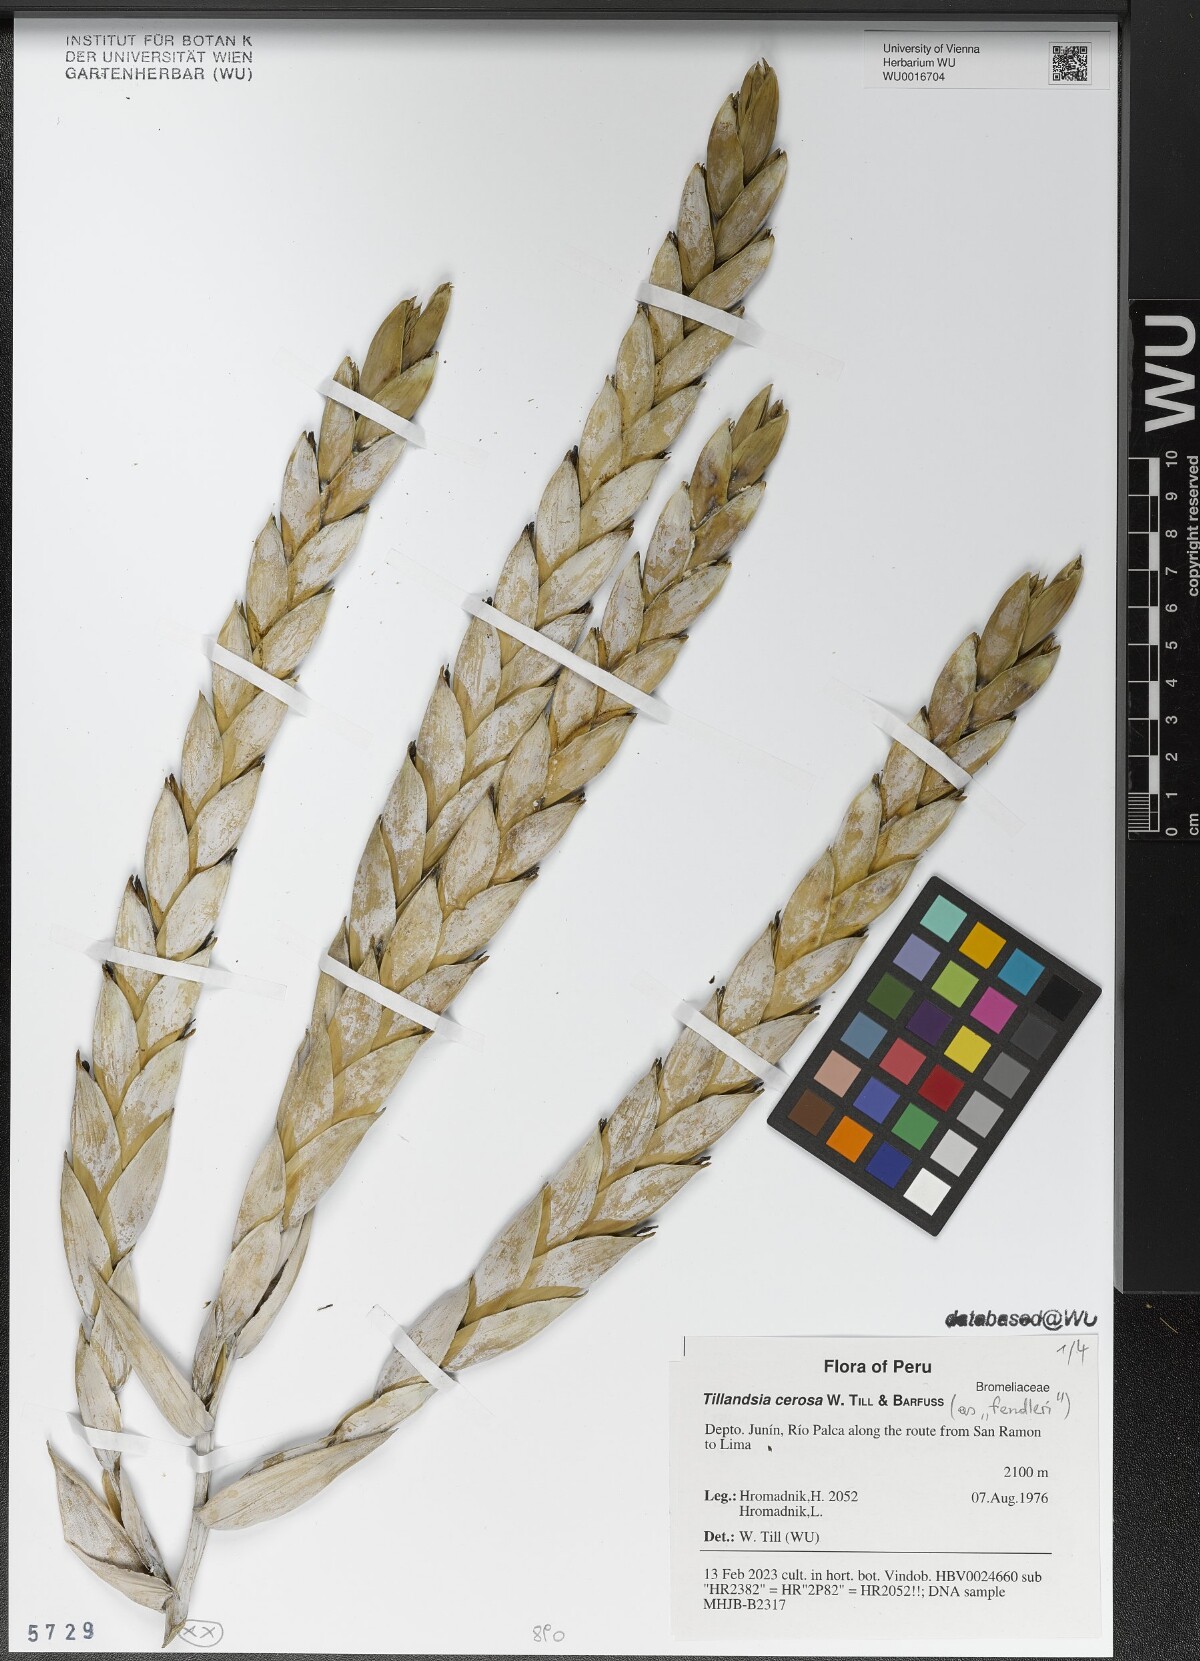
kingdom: Plantae
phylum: Tracheophyta
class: Liliopsida
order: Poales
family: Bromeliaceae
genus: Tillandsia
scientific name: Tillandsia cernua
